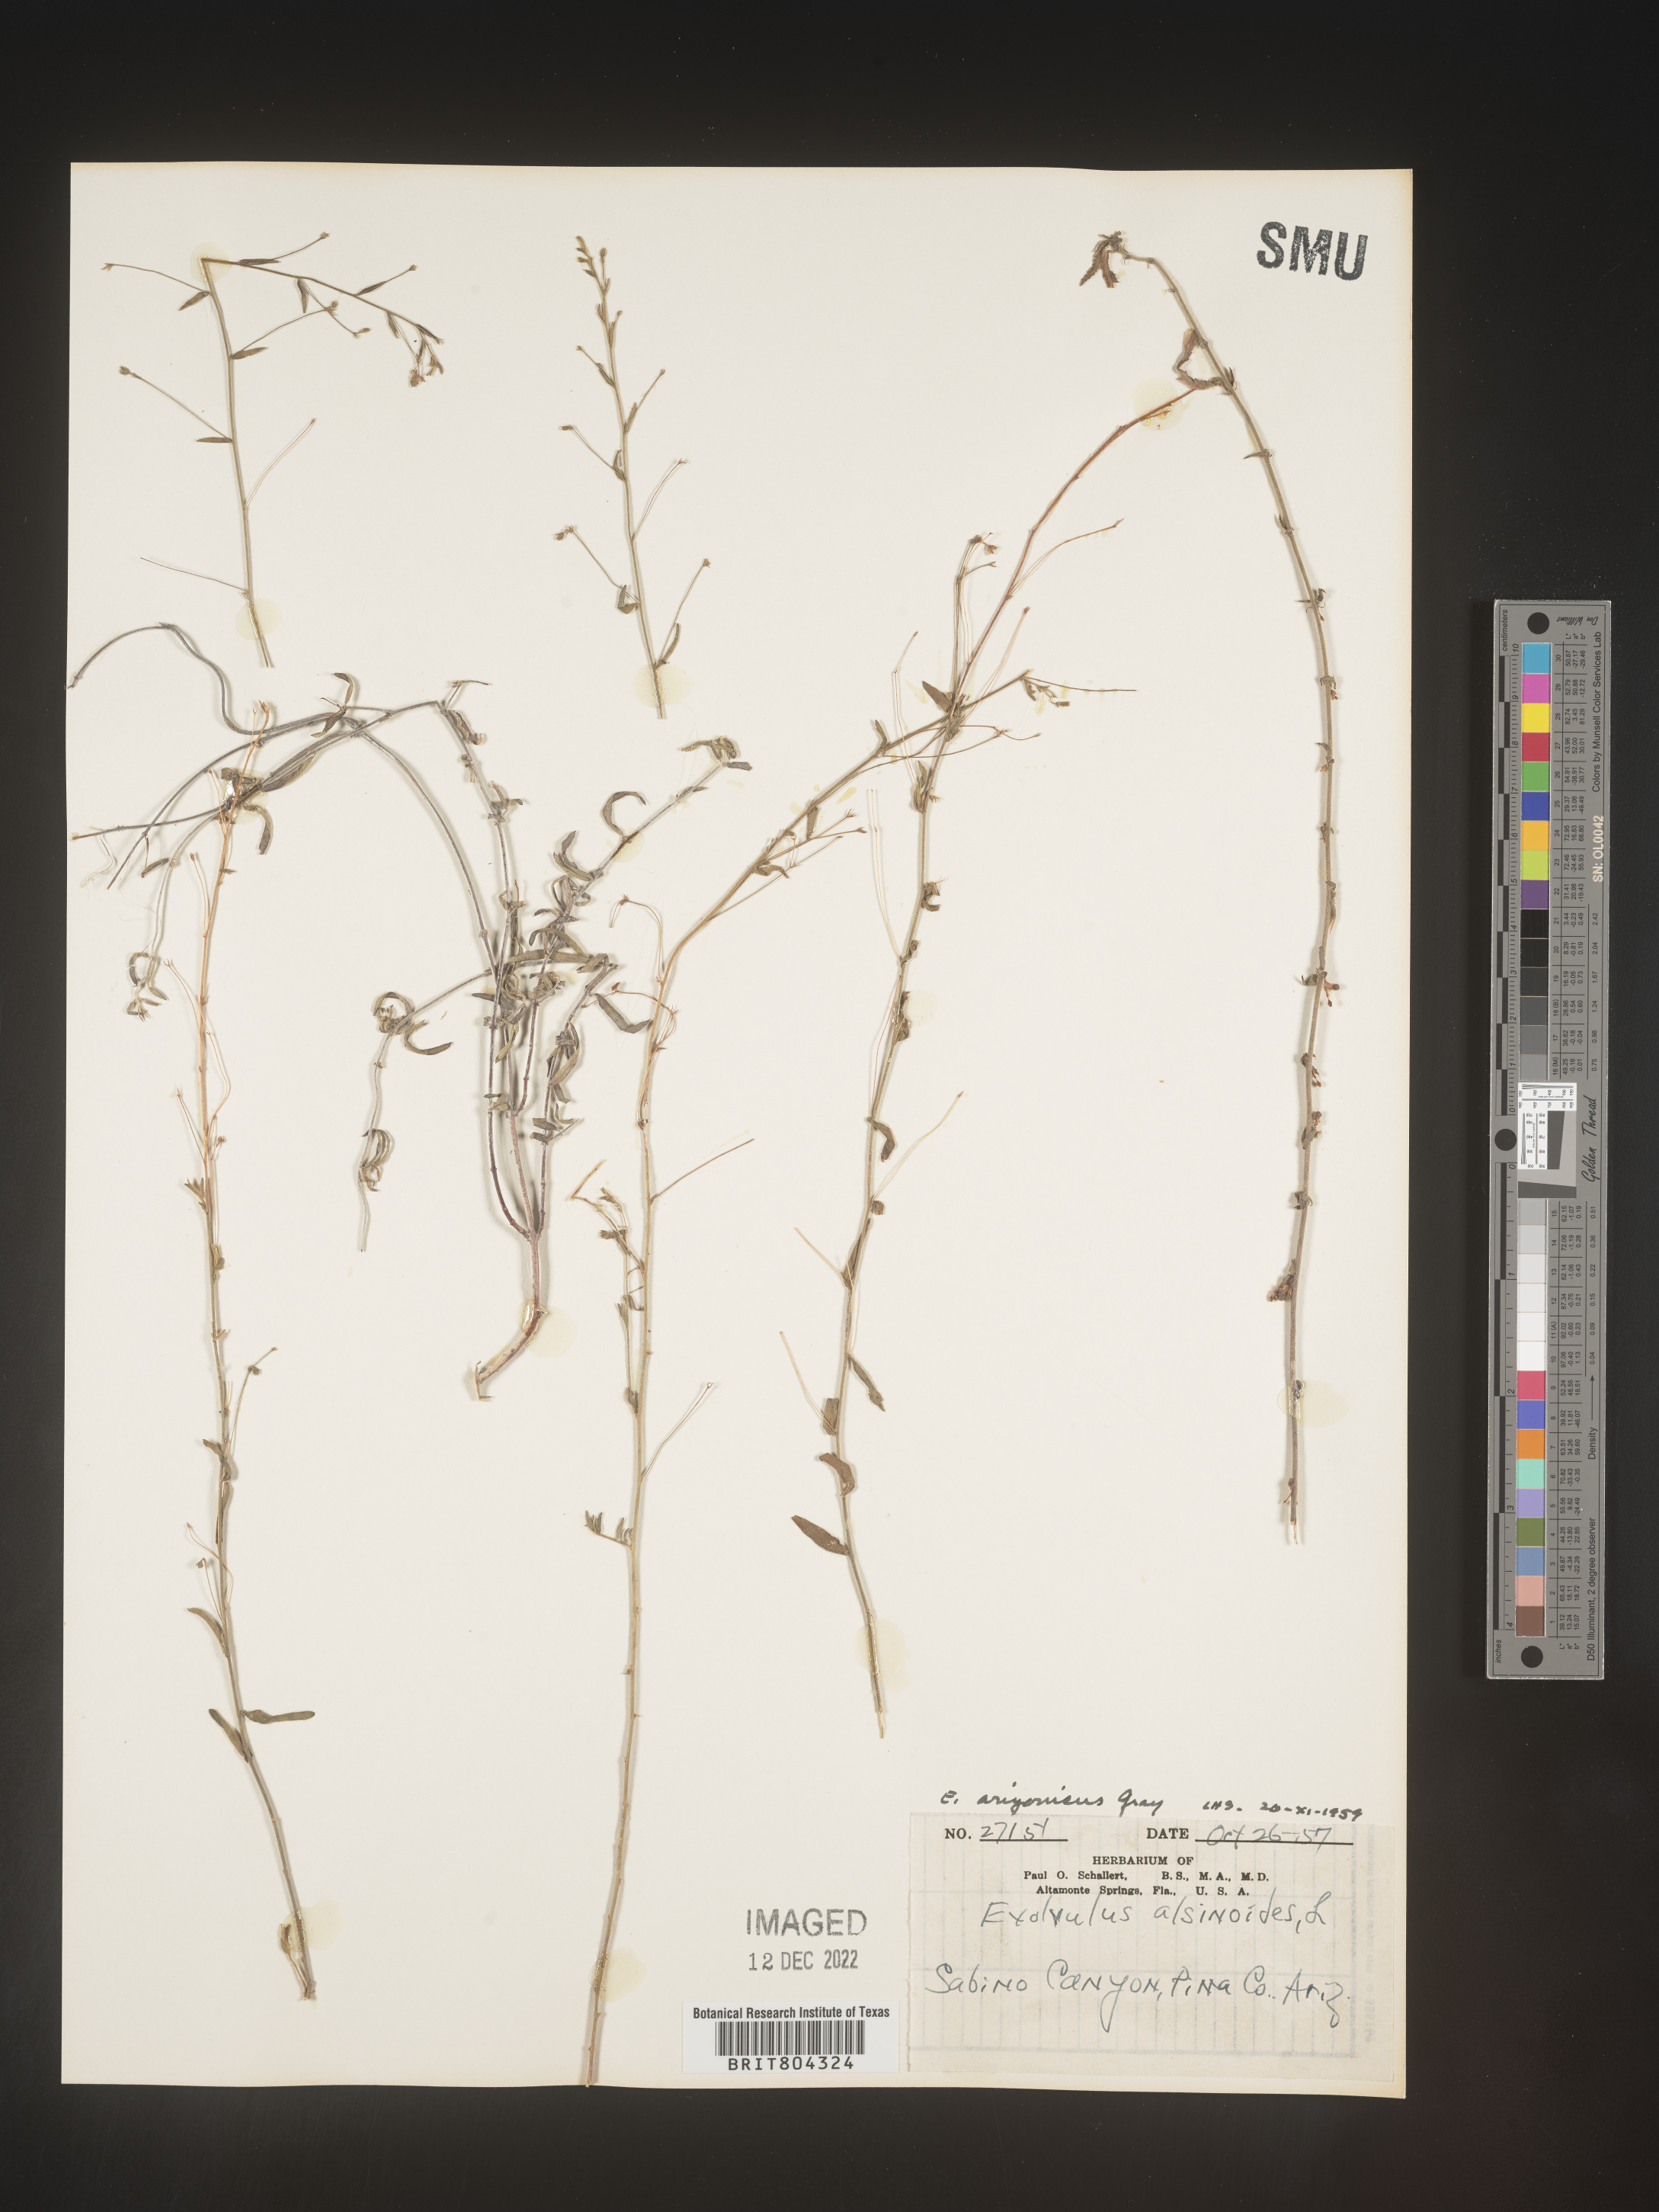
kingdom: Plantae
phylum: Tracheophyta
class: Magnoliopsida
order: Solanales
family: Convolvulaceae
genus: Evolvulus
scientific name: Evolvulus alsinoides
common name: Slender dwarf morning-glory
